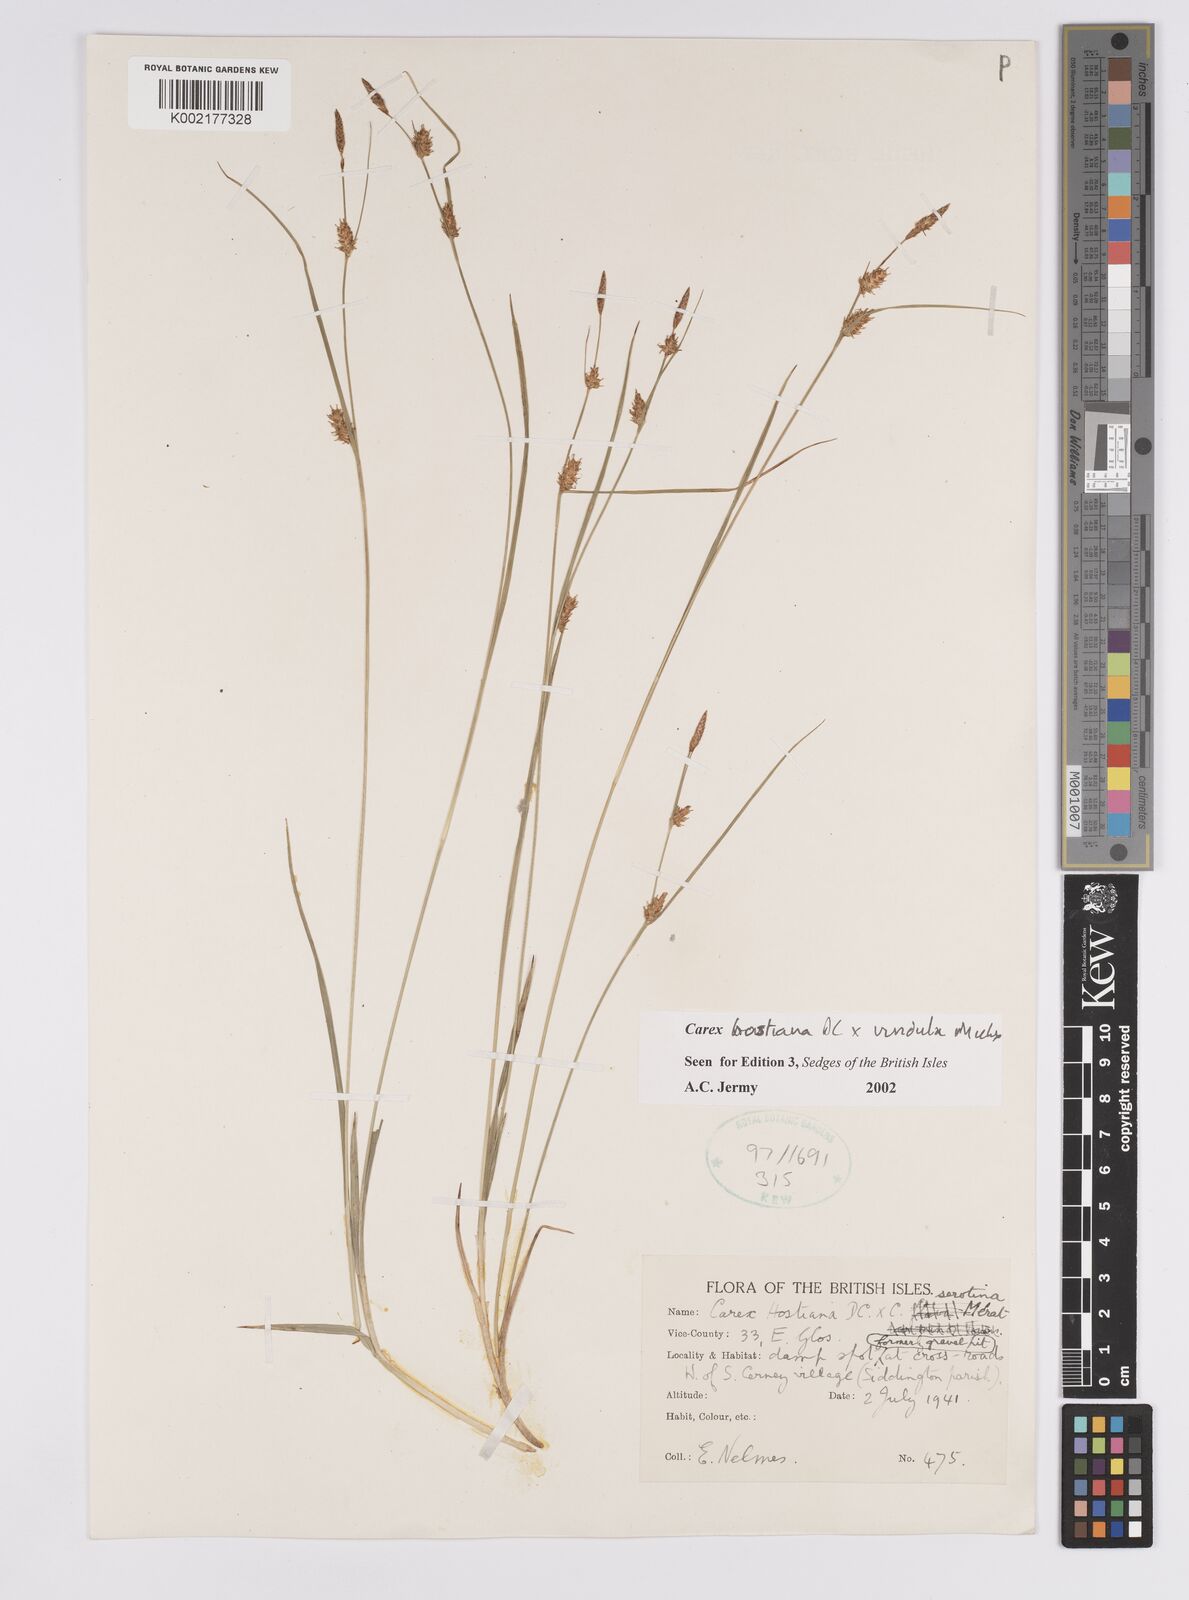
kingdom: Plantae
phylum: Tracheophyta
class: Liliopsida
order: Poales
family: Cyperaceae
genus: Carex
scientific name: Carex hostiana
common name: Tawny sedge
